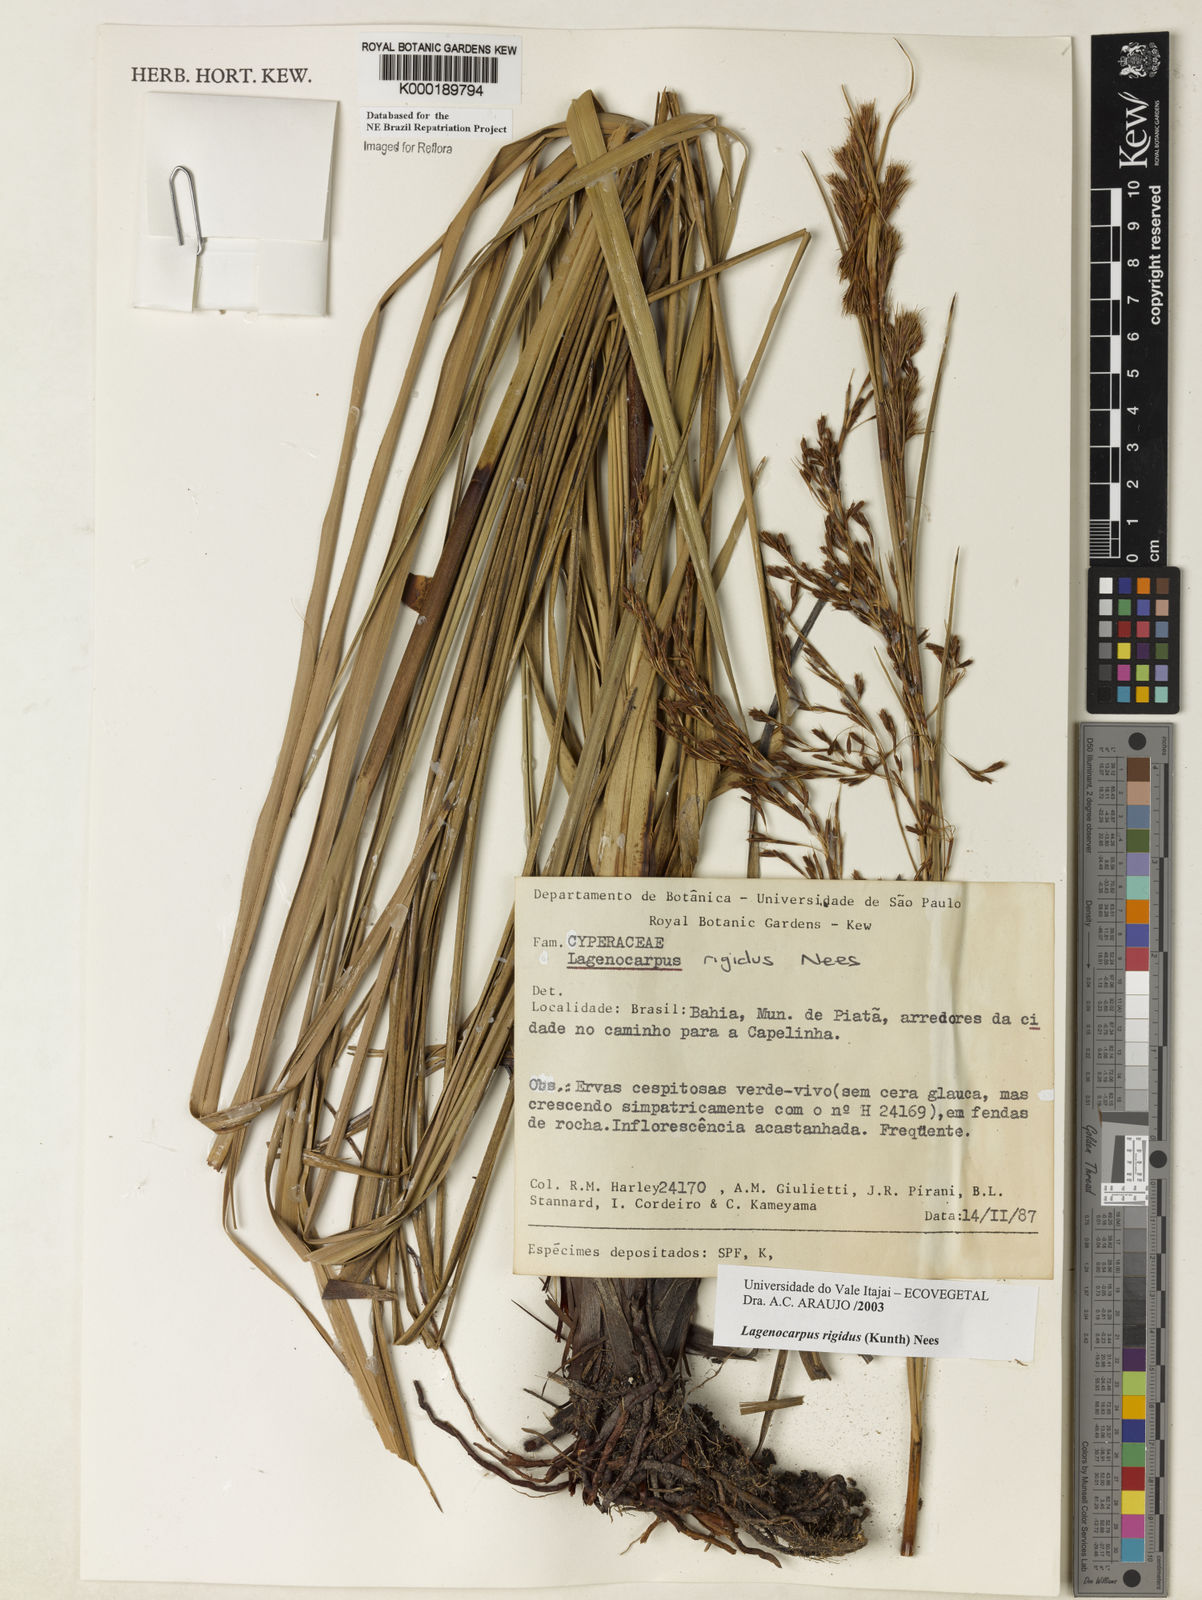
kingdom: Plantae
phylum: Tracheophyta
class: Liliopsida
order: Poales
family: Cyperaceae
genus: Lagenocarpus
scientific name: Lagenocarpus rigidus
